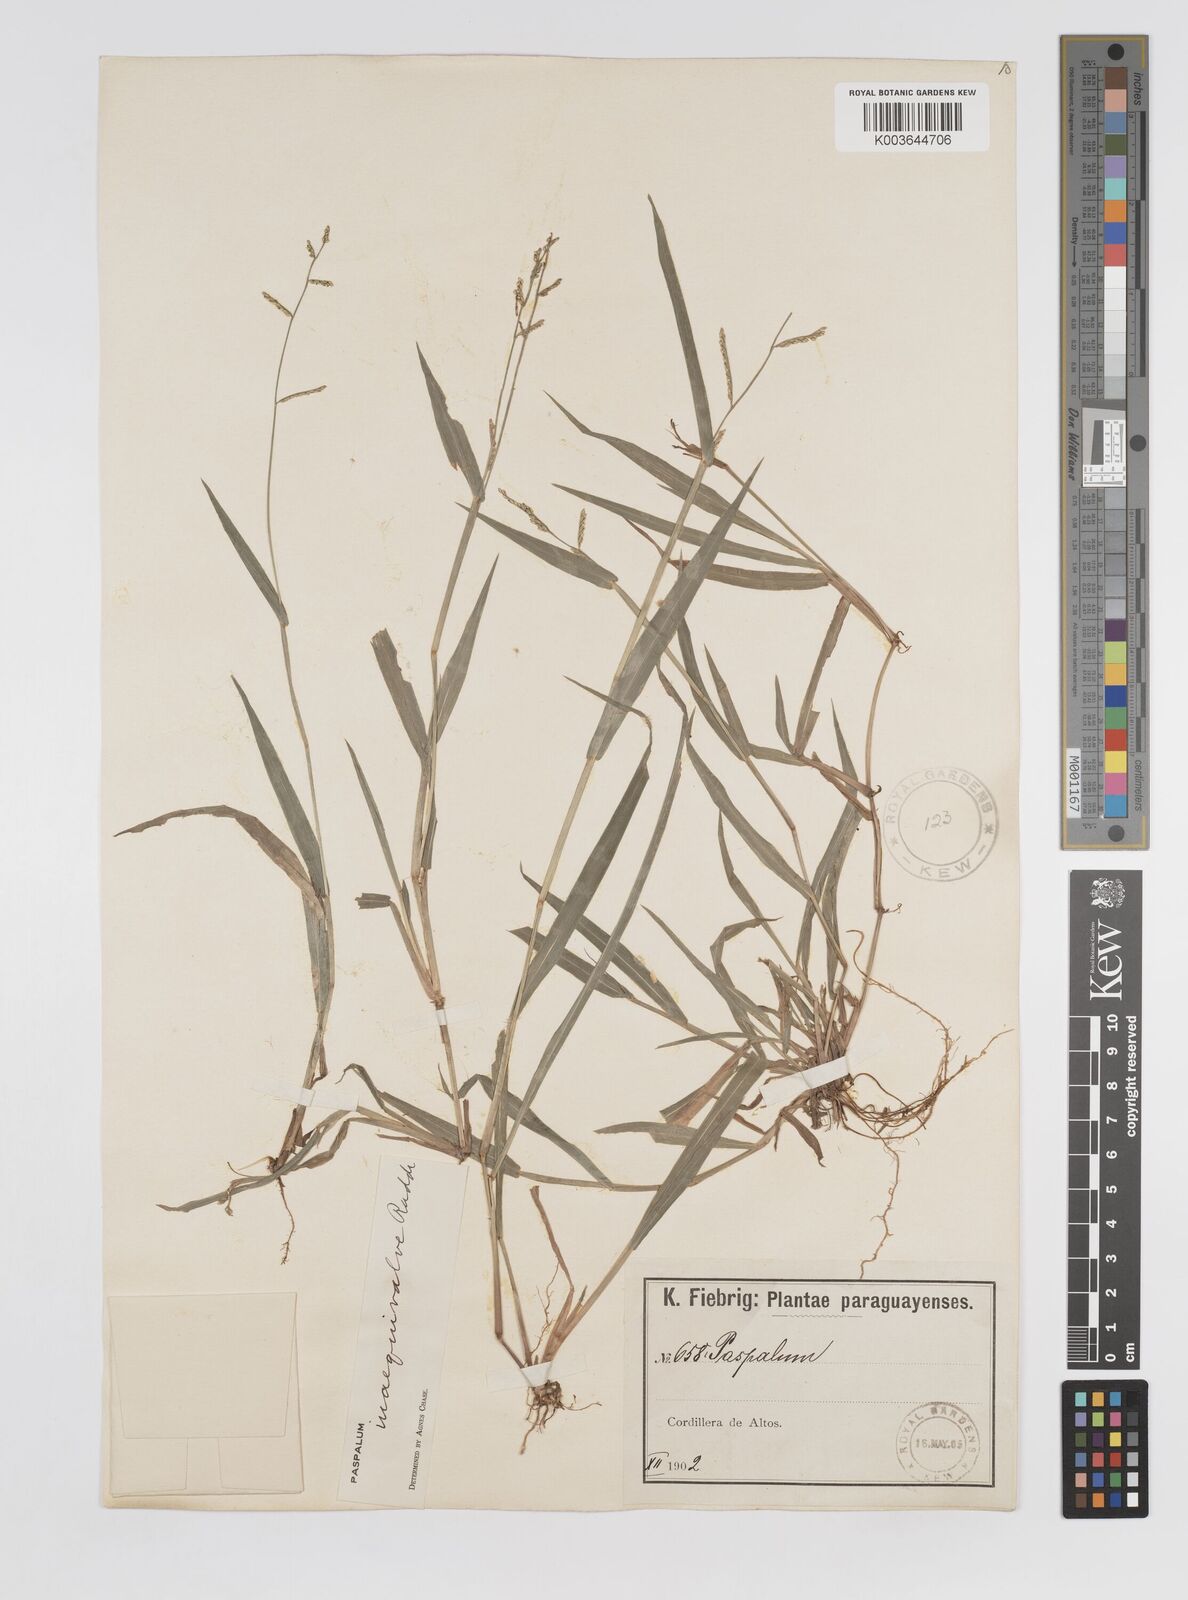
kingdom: Plantae
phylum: Tracheophyta
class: Liliopsida
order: Poales
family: Poaceae
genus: Paspalum
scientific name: Paspalum inaequivalve
